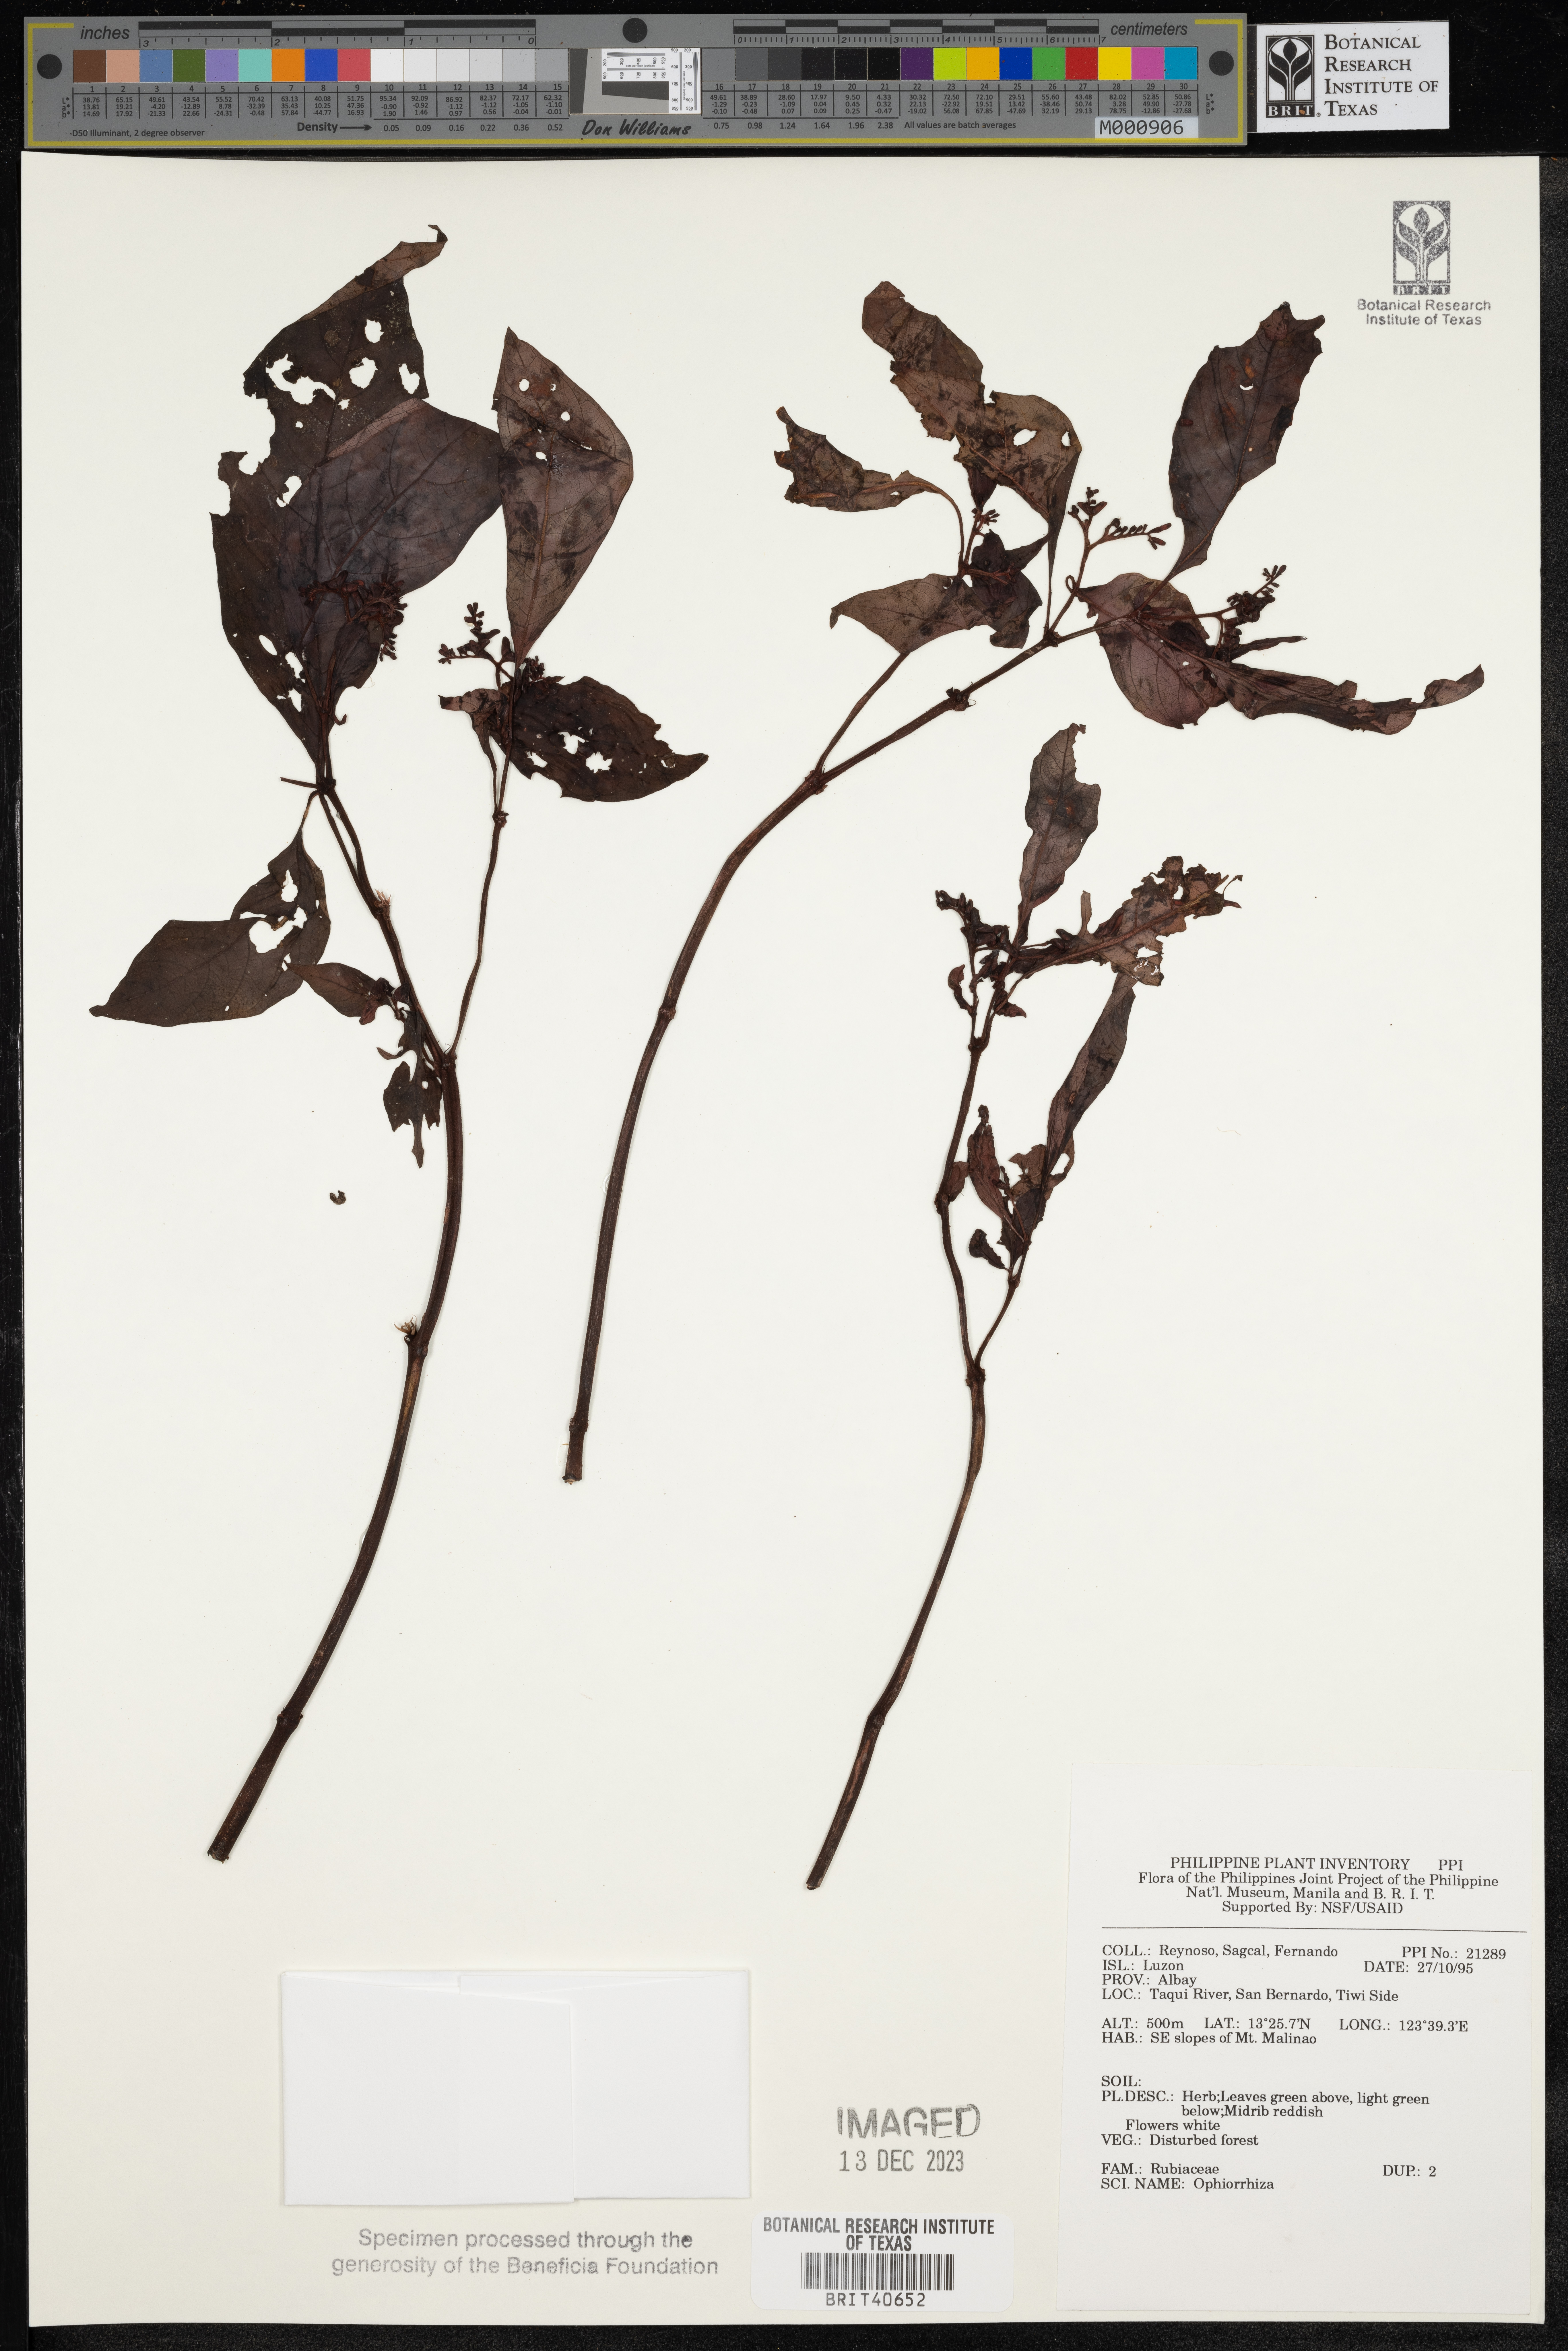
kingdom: Plantae
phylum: Tracheophyta
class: Magnoliopsida
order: Gentianales
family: Rubiaceae
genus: Ophiorrhiza
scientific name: Ophiorrhiza
